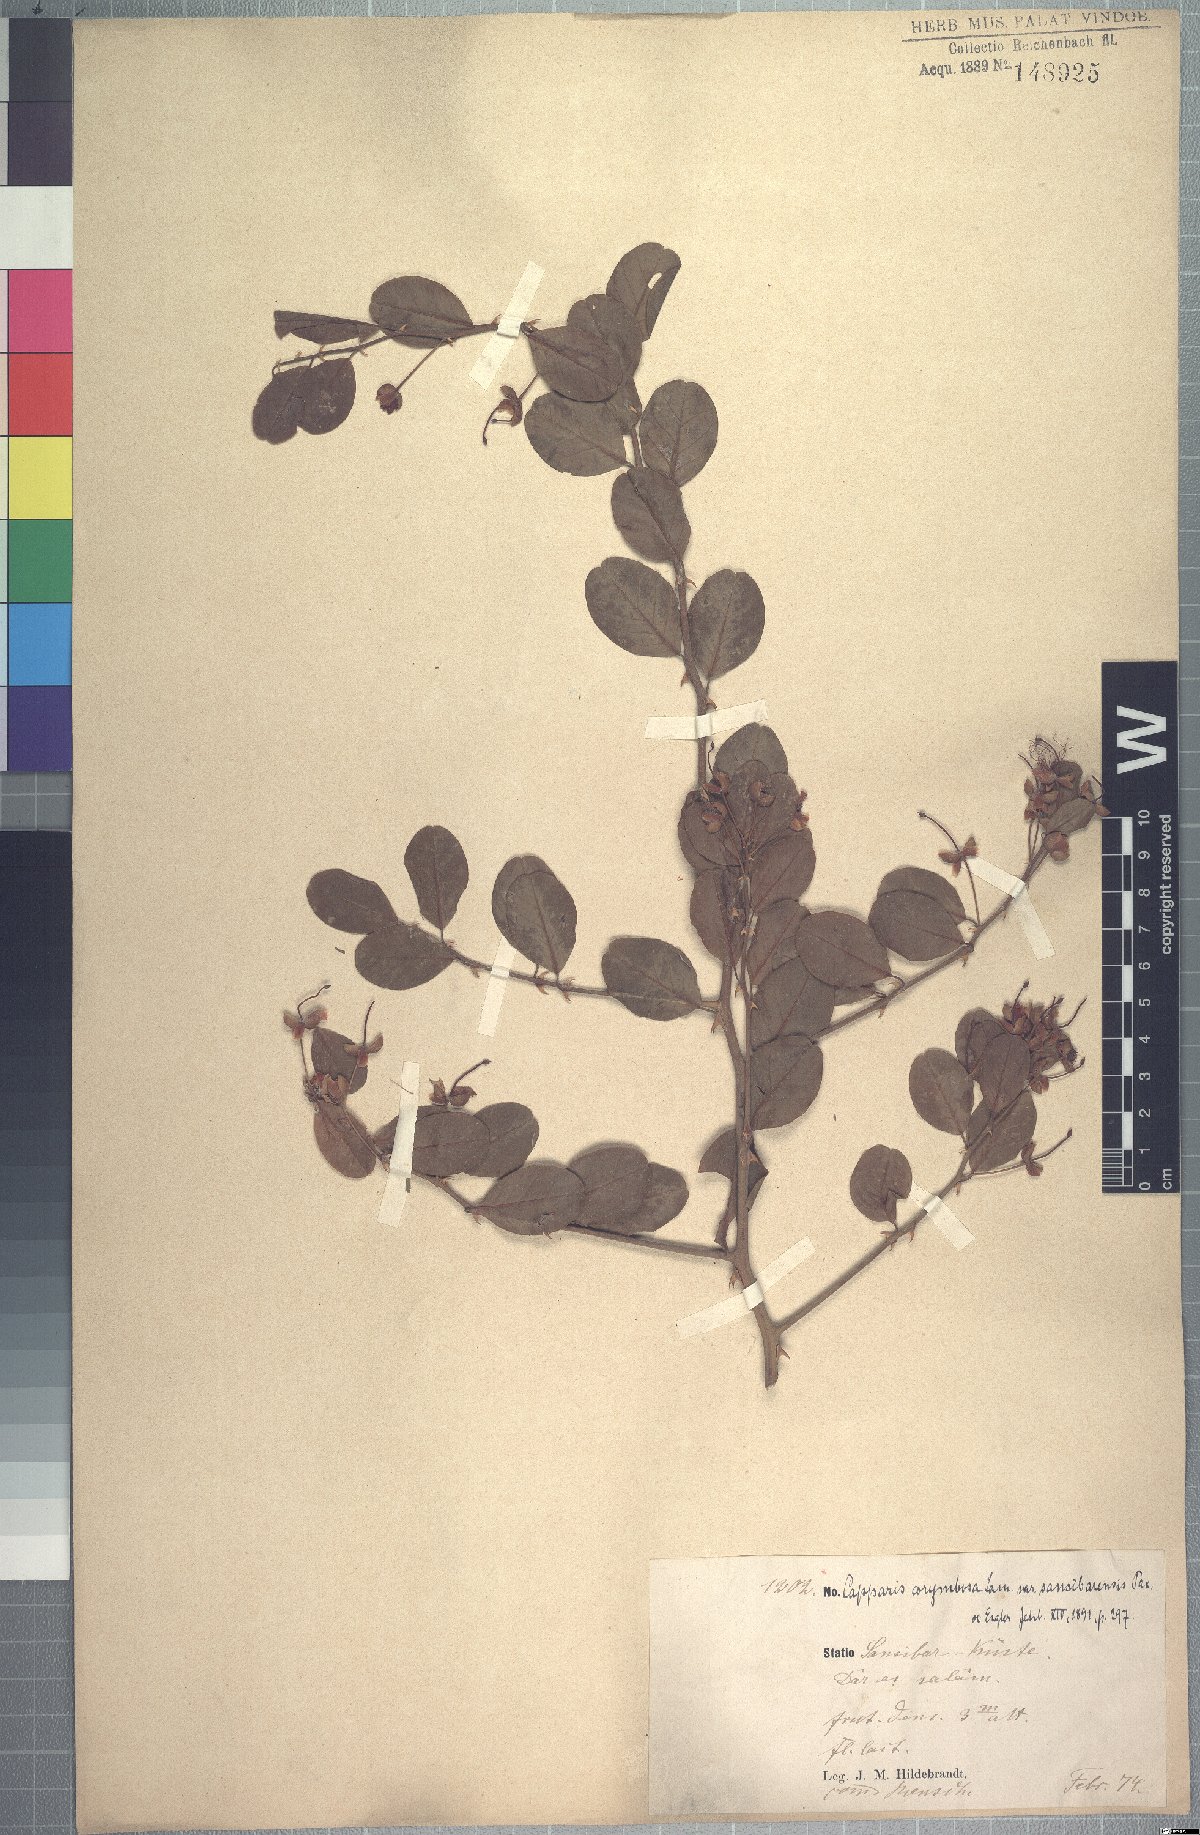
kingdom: Plantae
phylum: Tracheophyta
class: Magnoliopsida
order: Brassicales
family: Capparaceae
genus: Capparis
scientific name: Capparis sepiaria
